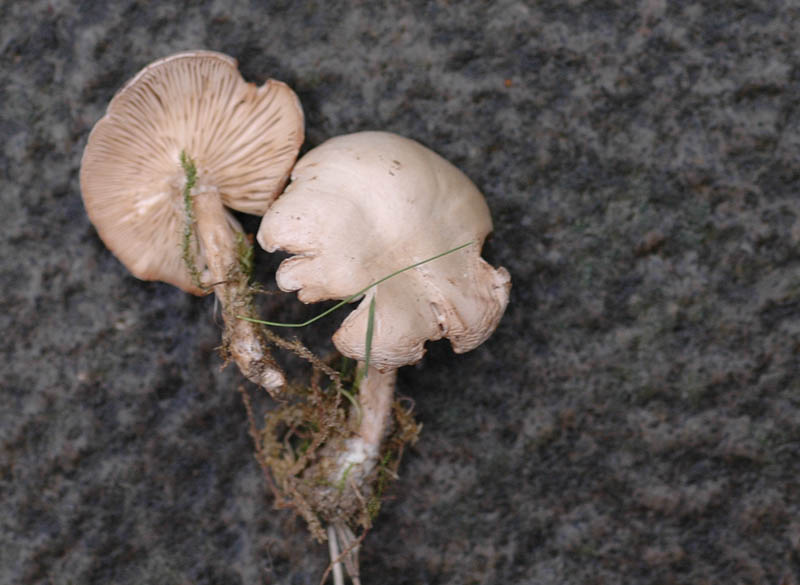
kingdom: Fungi
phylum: Basidiomycota
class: Agaricomycetes
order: Agaricales
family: Tricholomataceae
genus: Clitocybe
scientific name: Clitocybe rivulosa
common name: eng-tragthat
